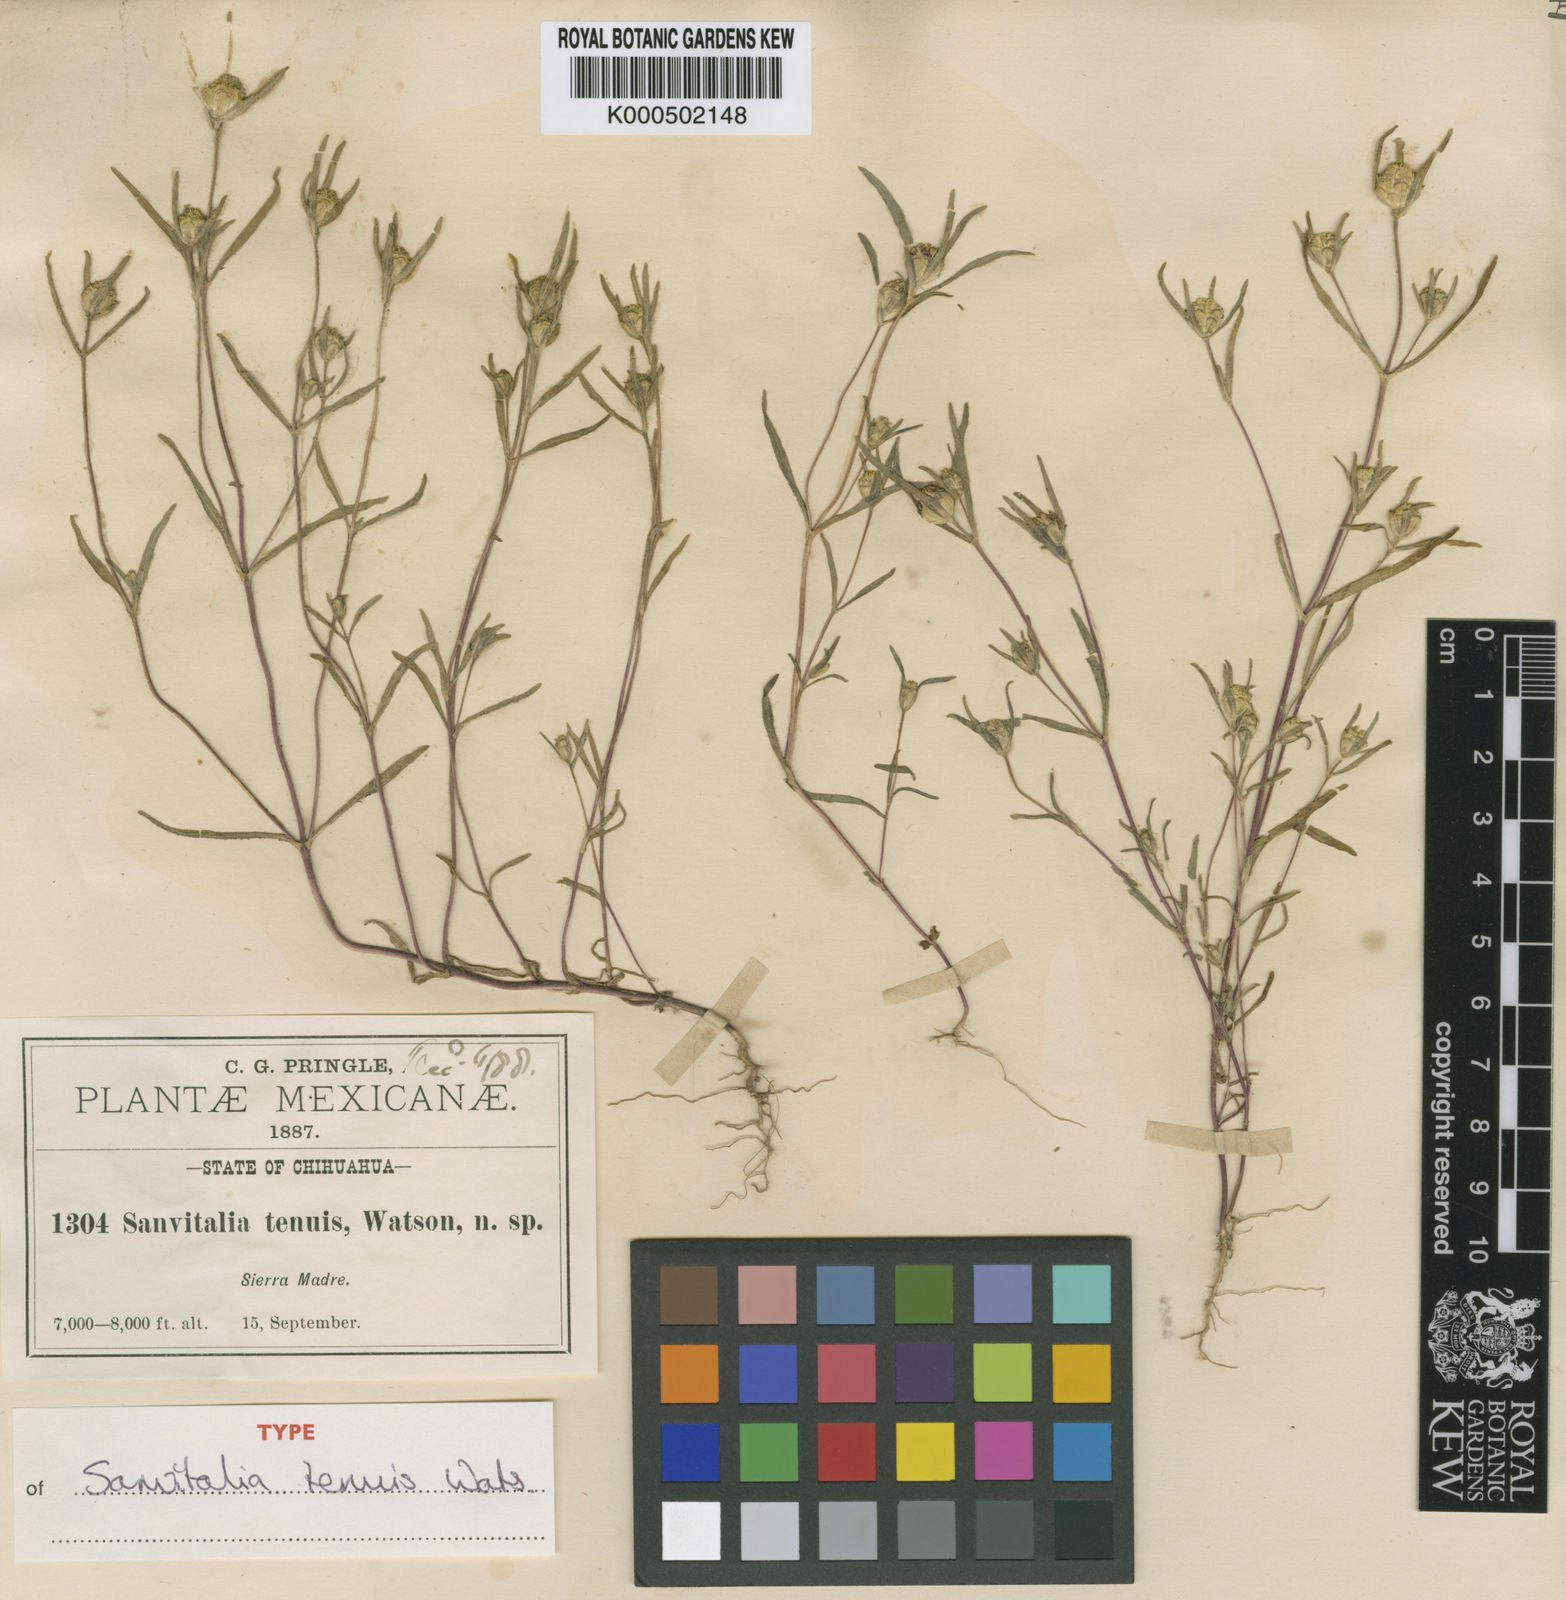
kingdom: Plantae
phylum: Tracheophyta
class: Magnoliopsida
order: Asterales
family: Asteraceae
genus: Zinnia
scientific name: Zinnia tenuis
